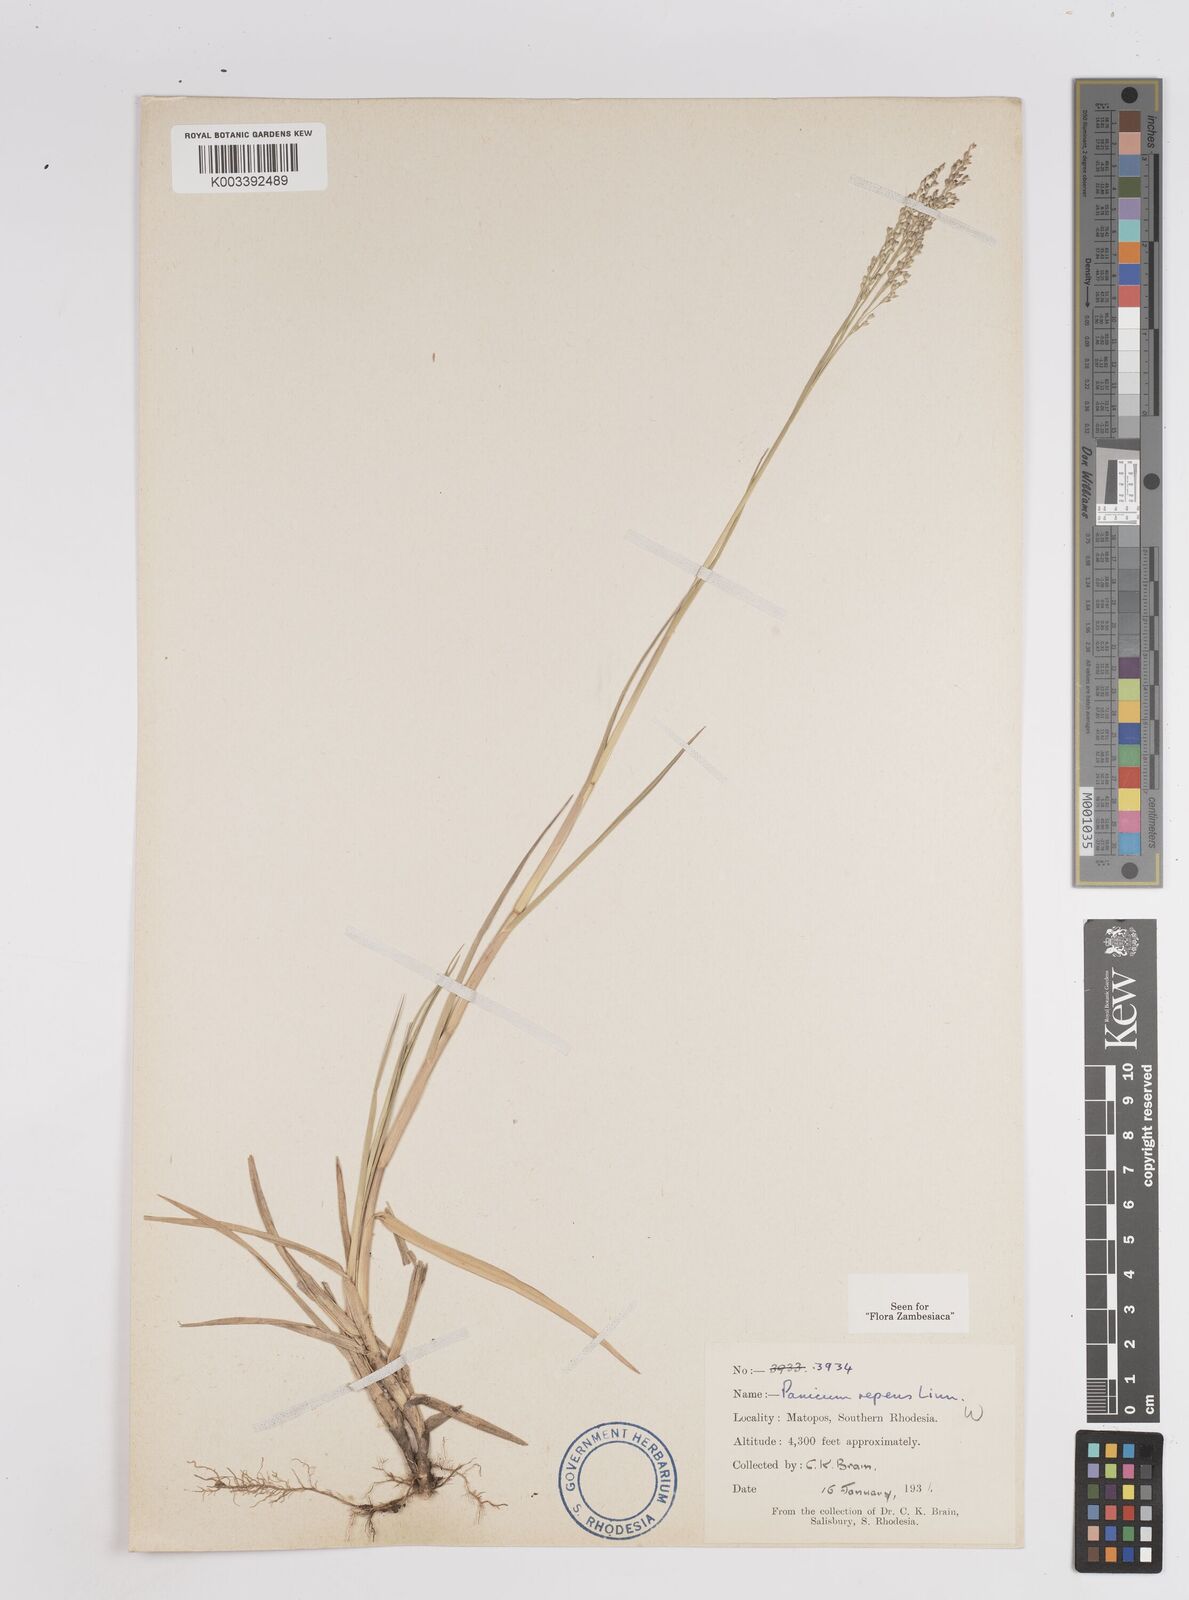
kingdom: Plantae
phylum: Tracheophyta
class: Liliopsida
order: Poales
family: Poaceae
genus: Panicum
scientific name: Panicum repens
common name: Torpedo grass
